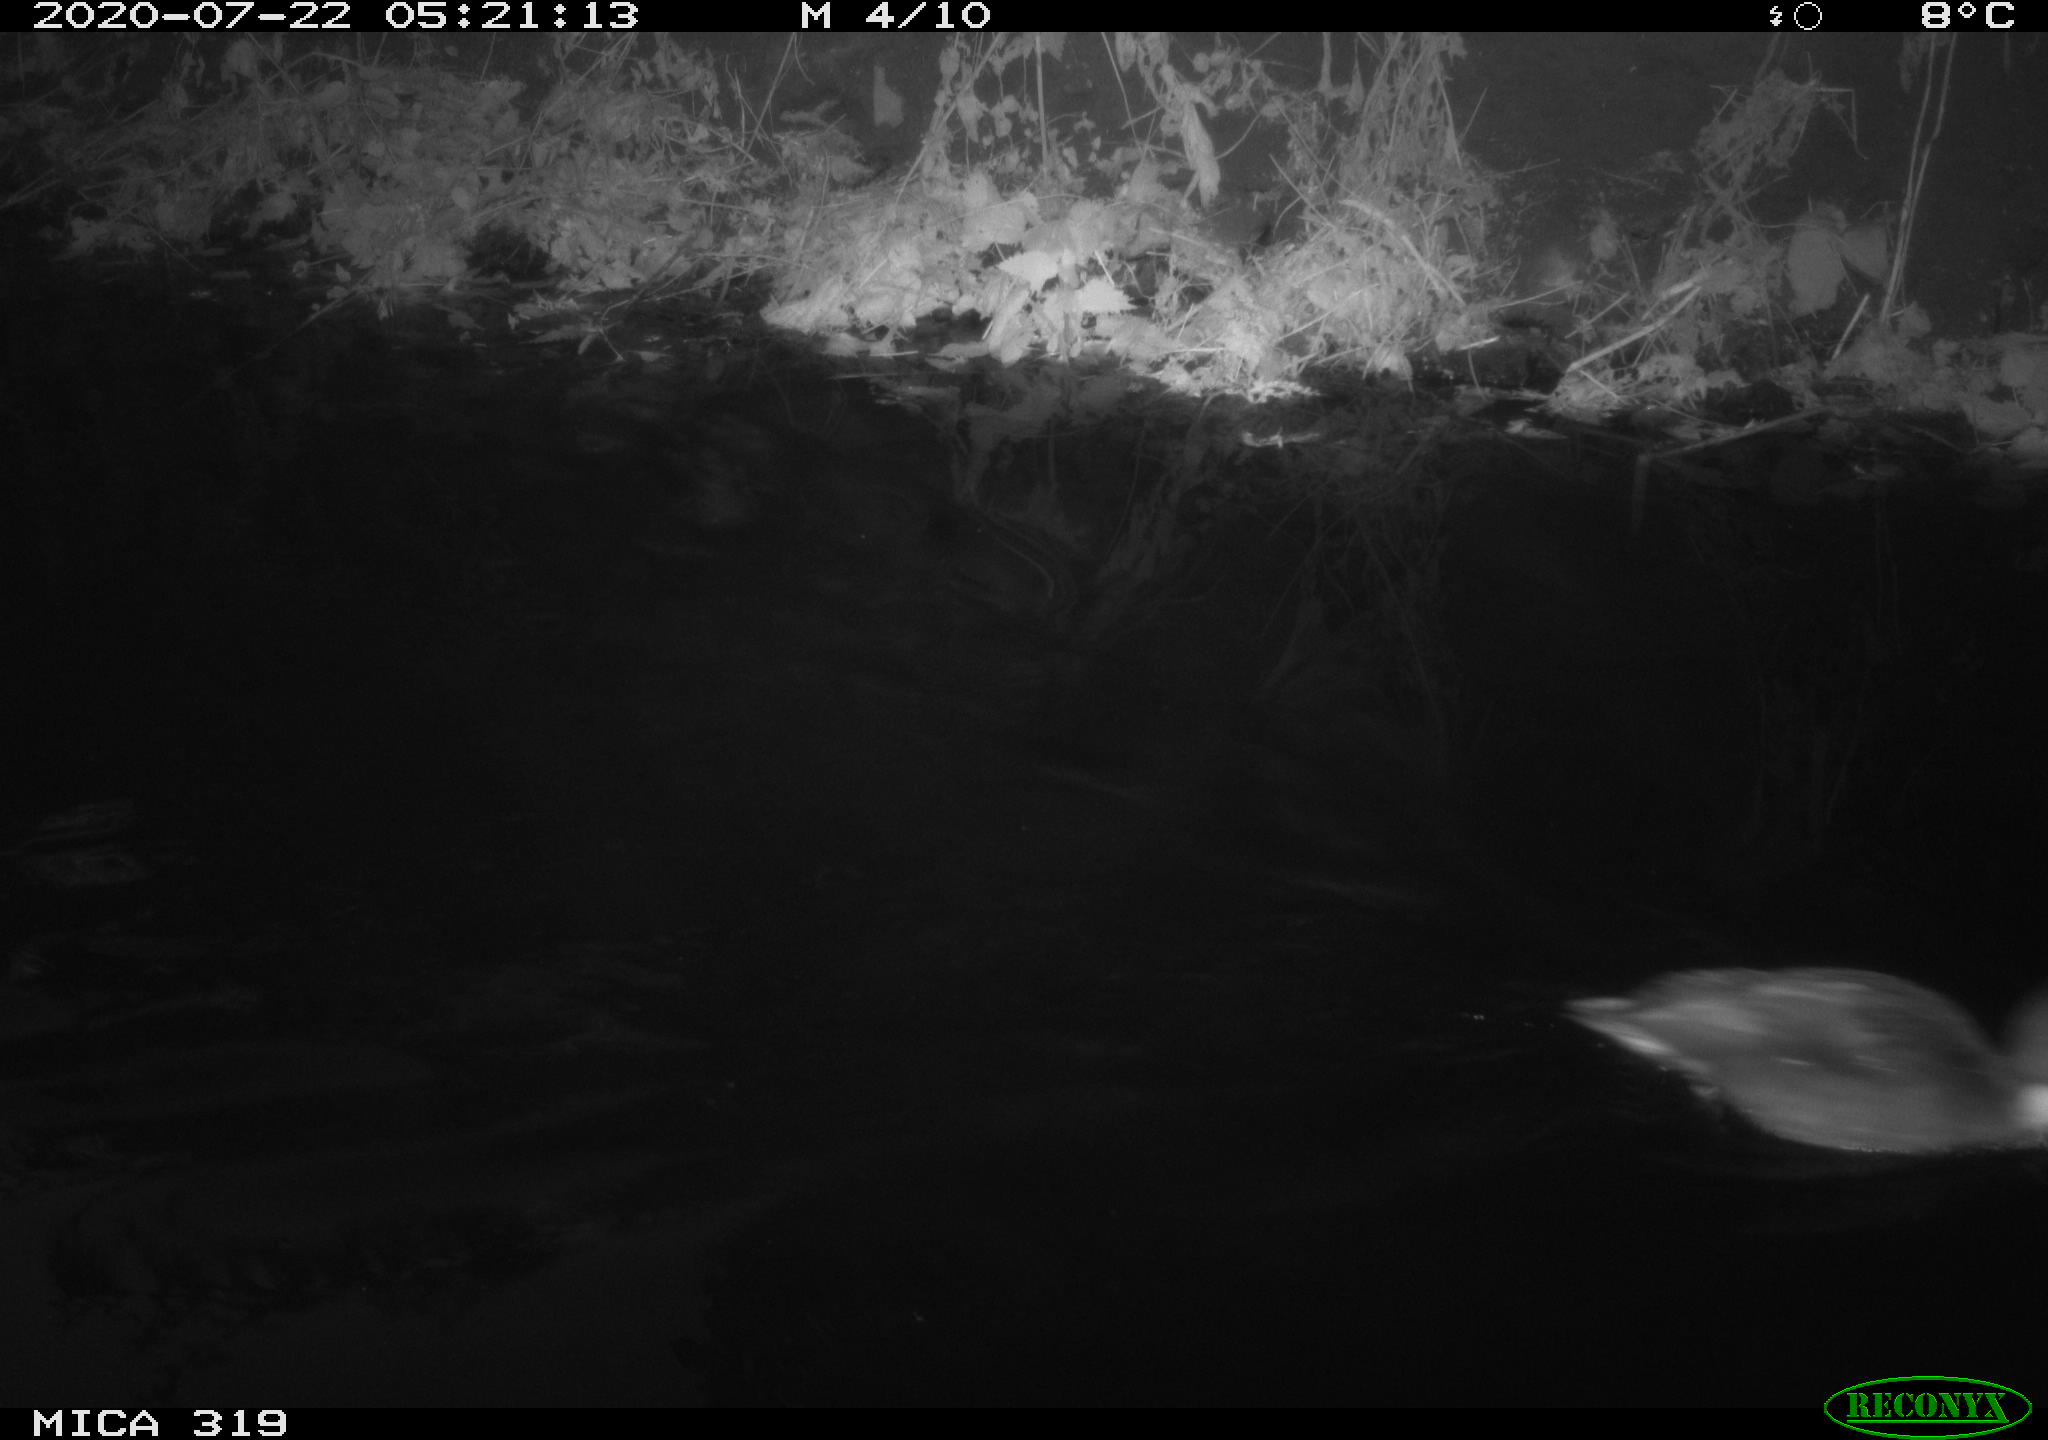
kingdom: Animalia
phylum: Chordata
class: Aves
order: Anseriformes
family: Anatidae
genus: Anas
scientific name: Anas platyrhynchos
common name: Mallard
